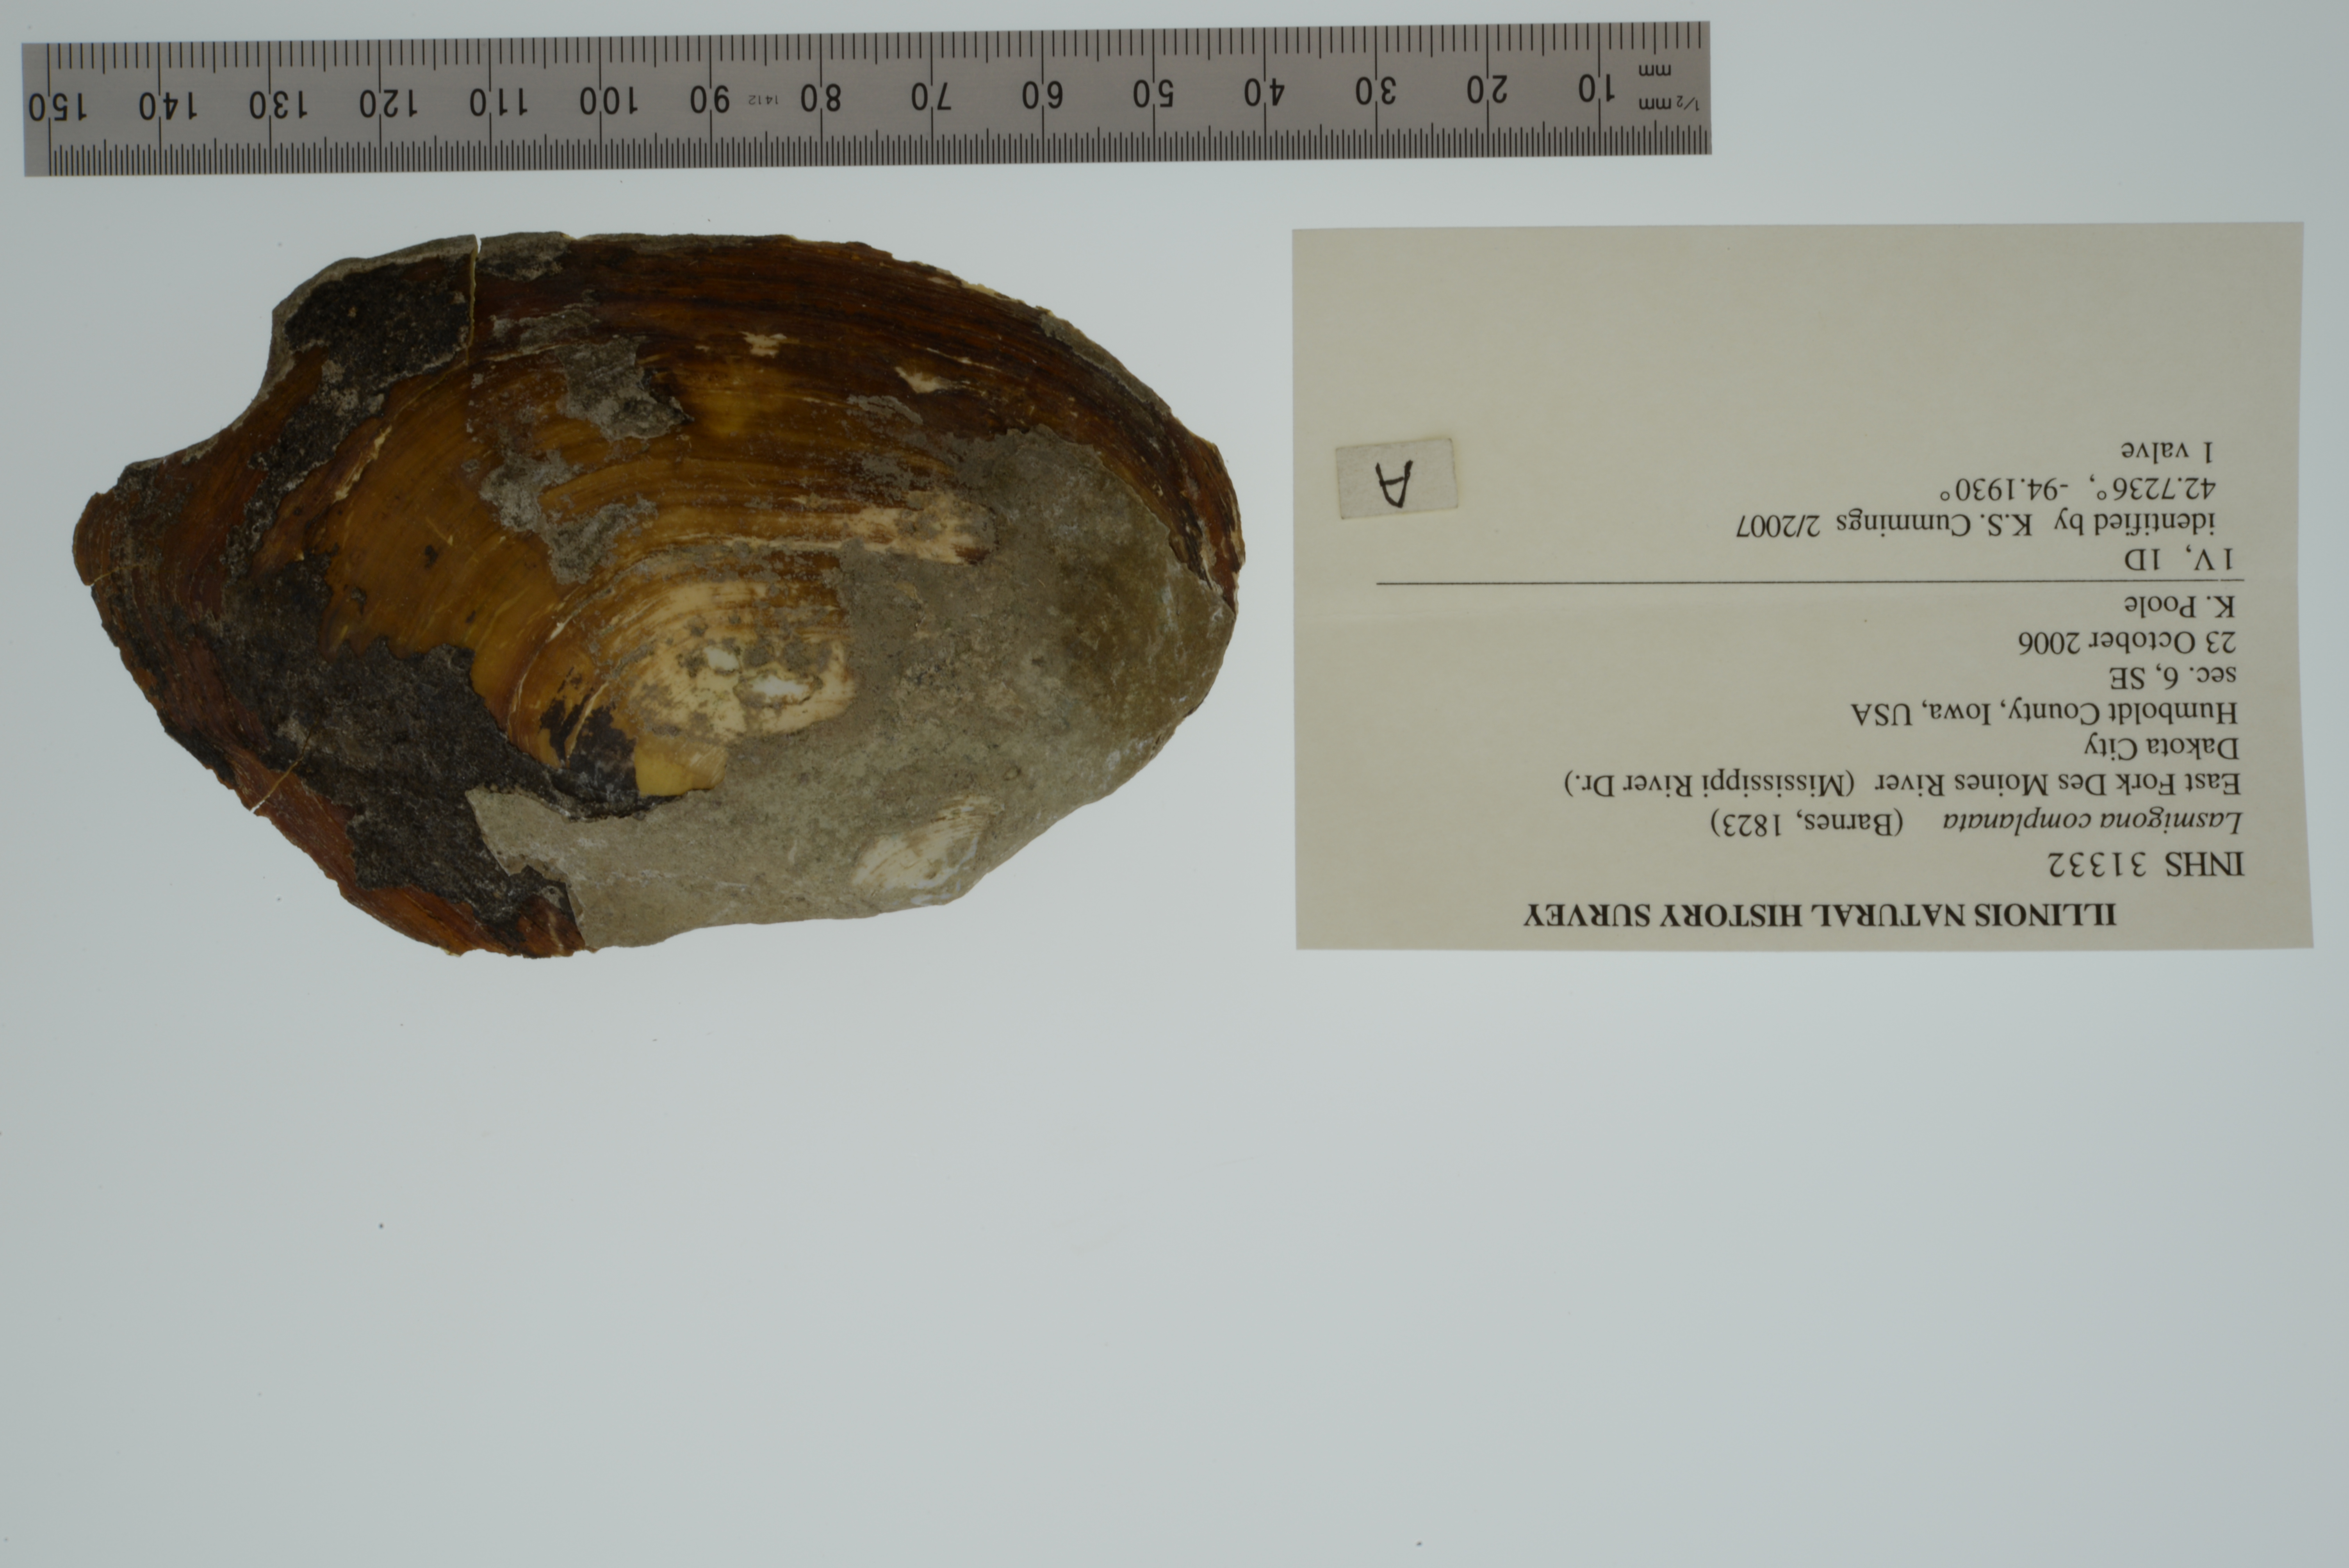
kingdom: Animalia
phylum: Mollusca
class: Bivalvia
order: Unionida
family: Unionidae
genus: Lasmigona
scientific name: Lasmigona complanata
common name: White heelsplitter
